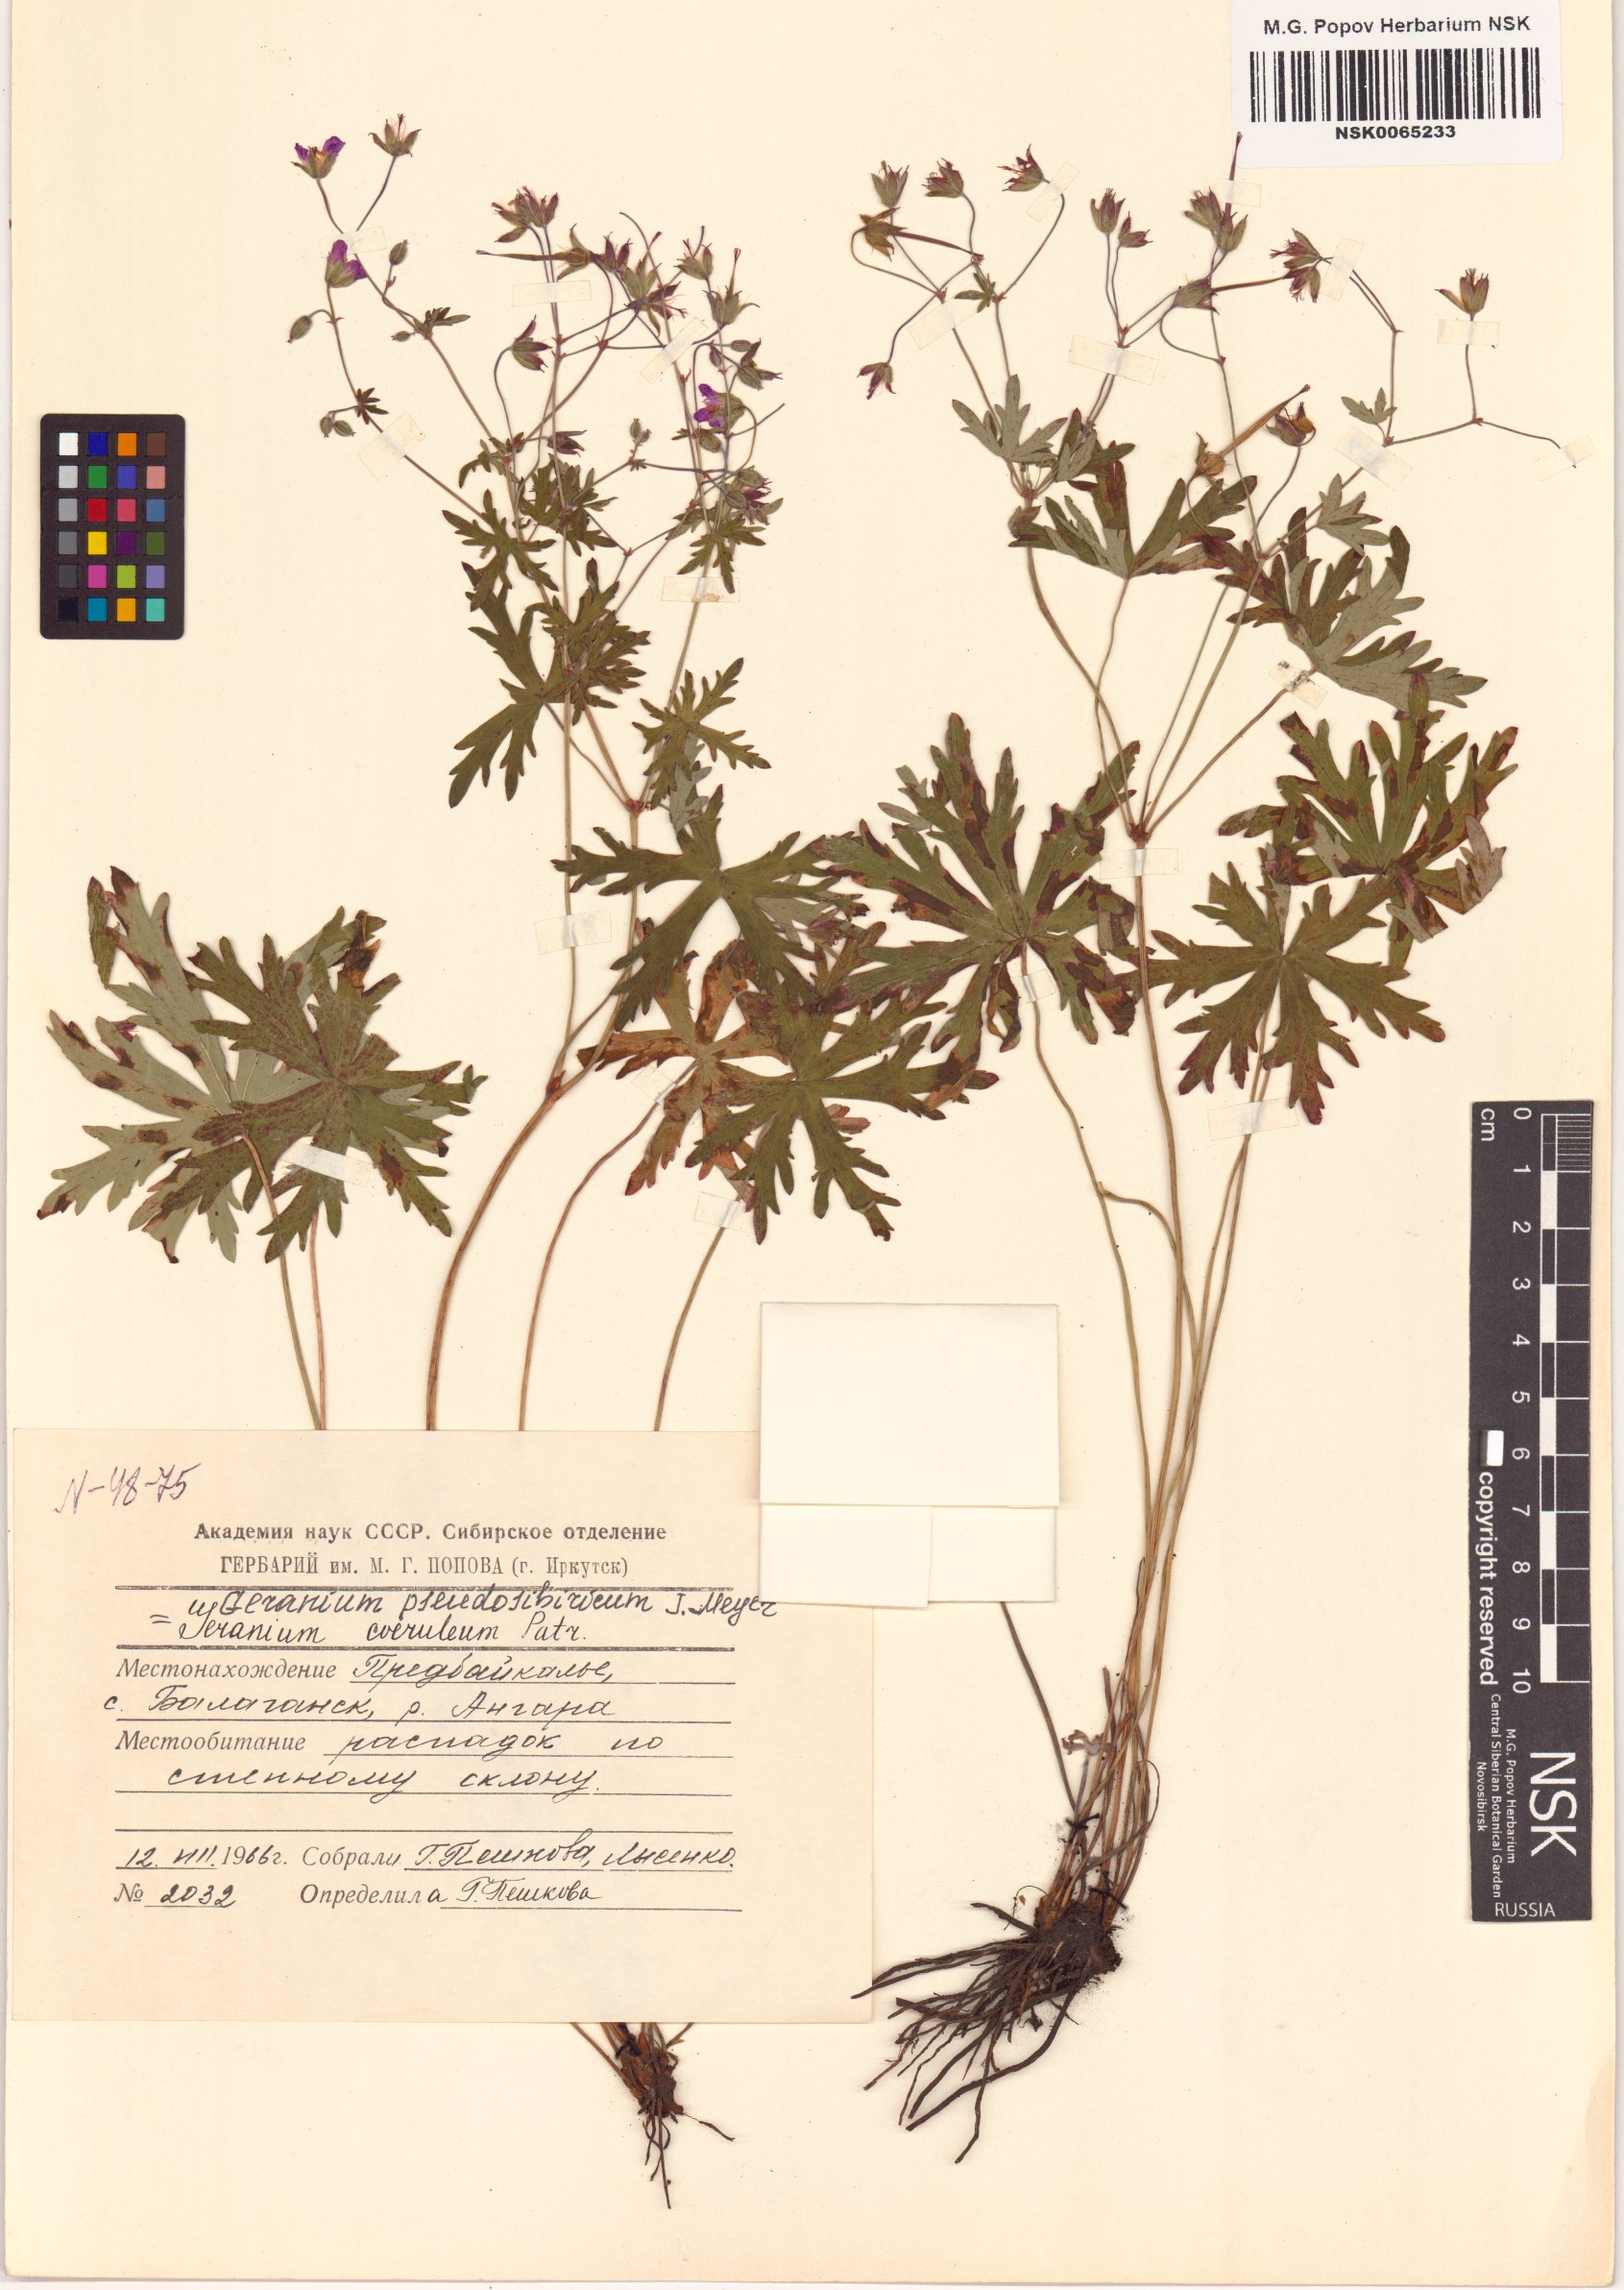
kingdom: Plantae
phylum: Tracheophyta
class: Magnoliopsida
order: Geraniales
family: Geraniaceae
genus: Geranium
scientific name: Geranium pseudosibiricum
